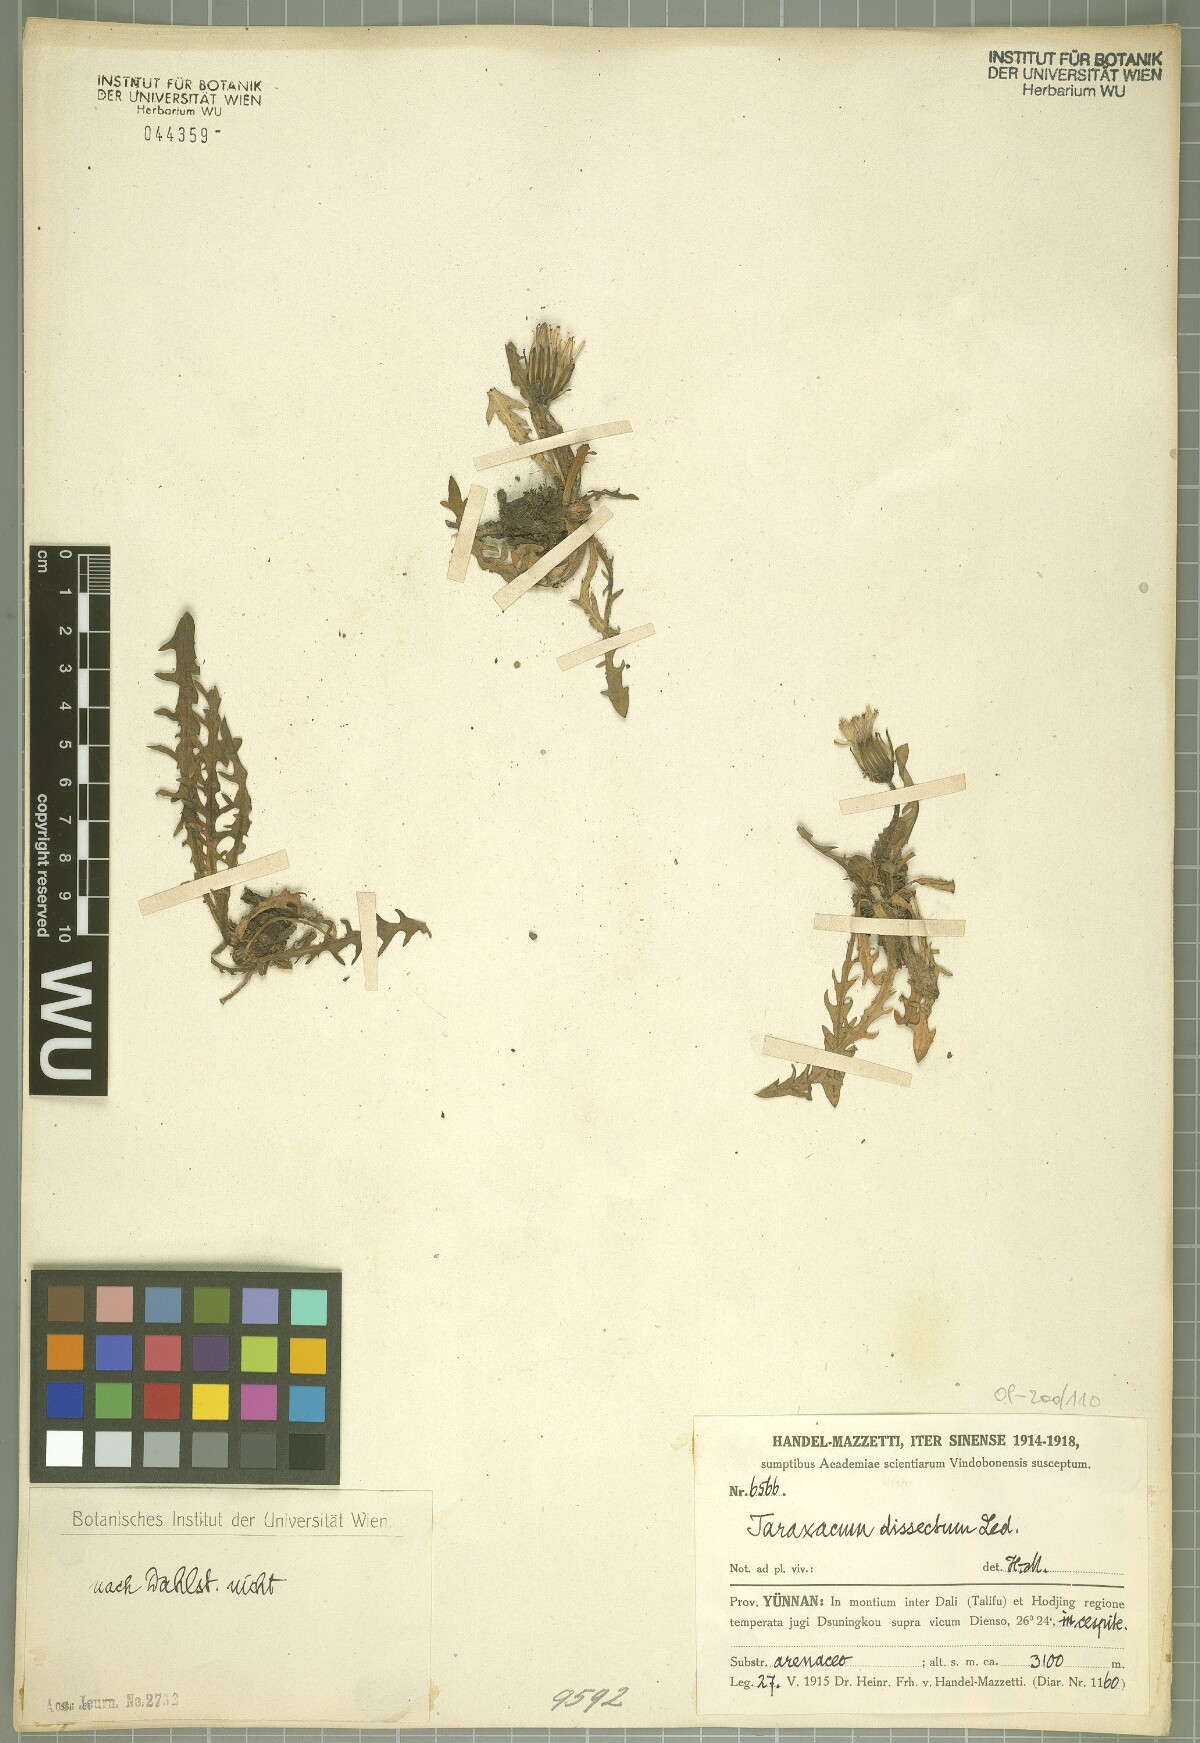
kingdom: Plantae
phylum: Tracheophyta
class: Magnoliopsida
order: Asterales
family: Asteraceae
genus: Taraxacum
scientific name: Taraxacum dissectum
